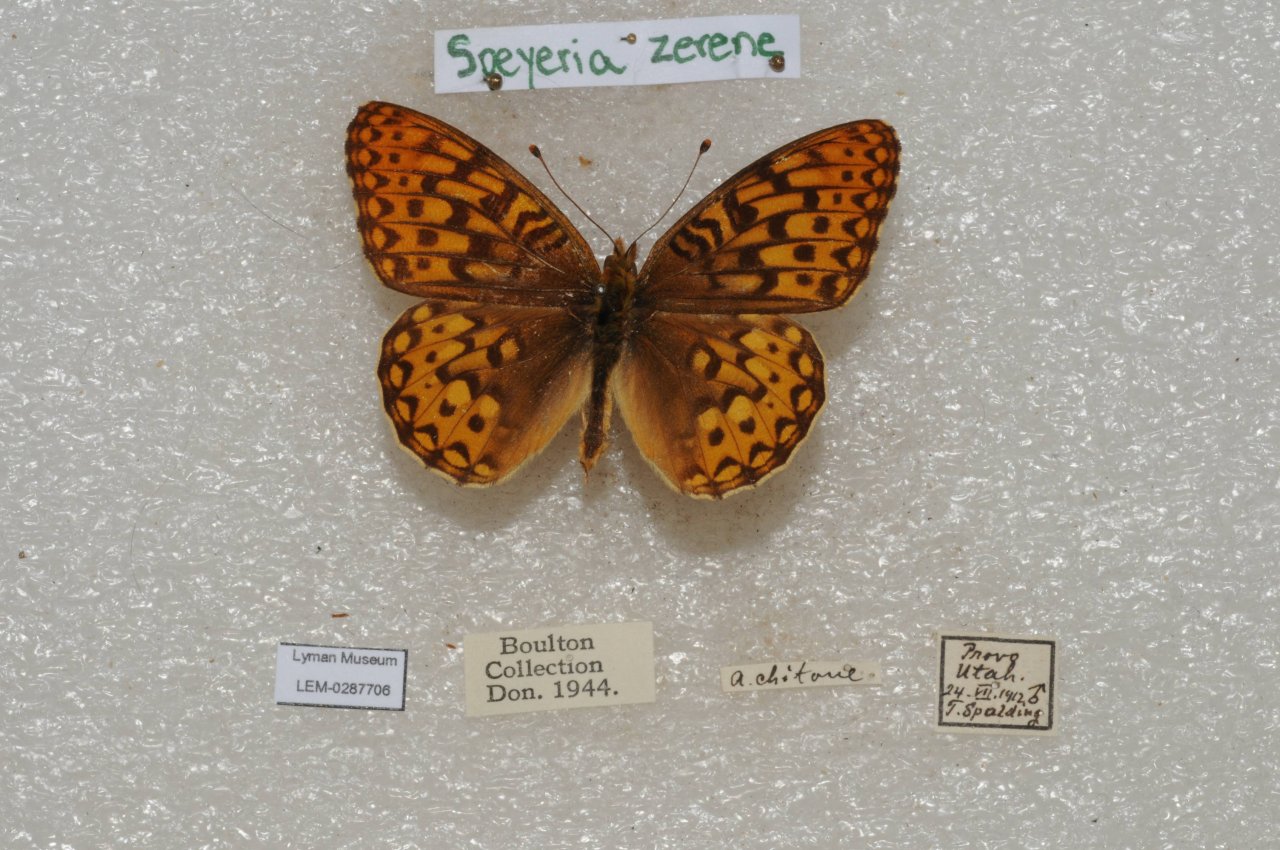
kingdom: Animalia
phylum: Arthropoda
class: Insecta
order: Lepidoptera
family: Nymphalidae
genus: Speyeria
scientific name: Speyeria zerene
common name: Zerene Fritillary
